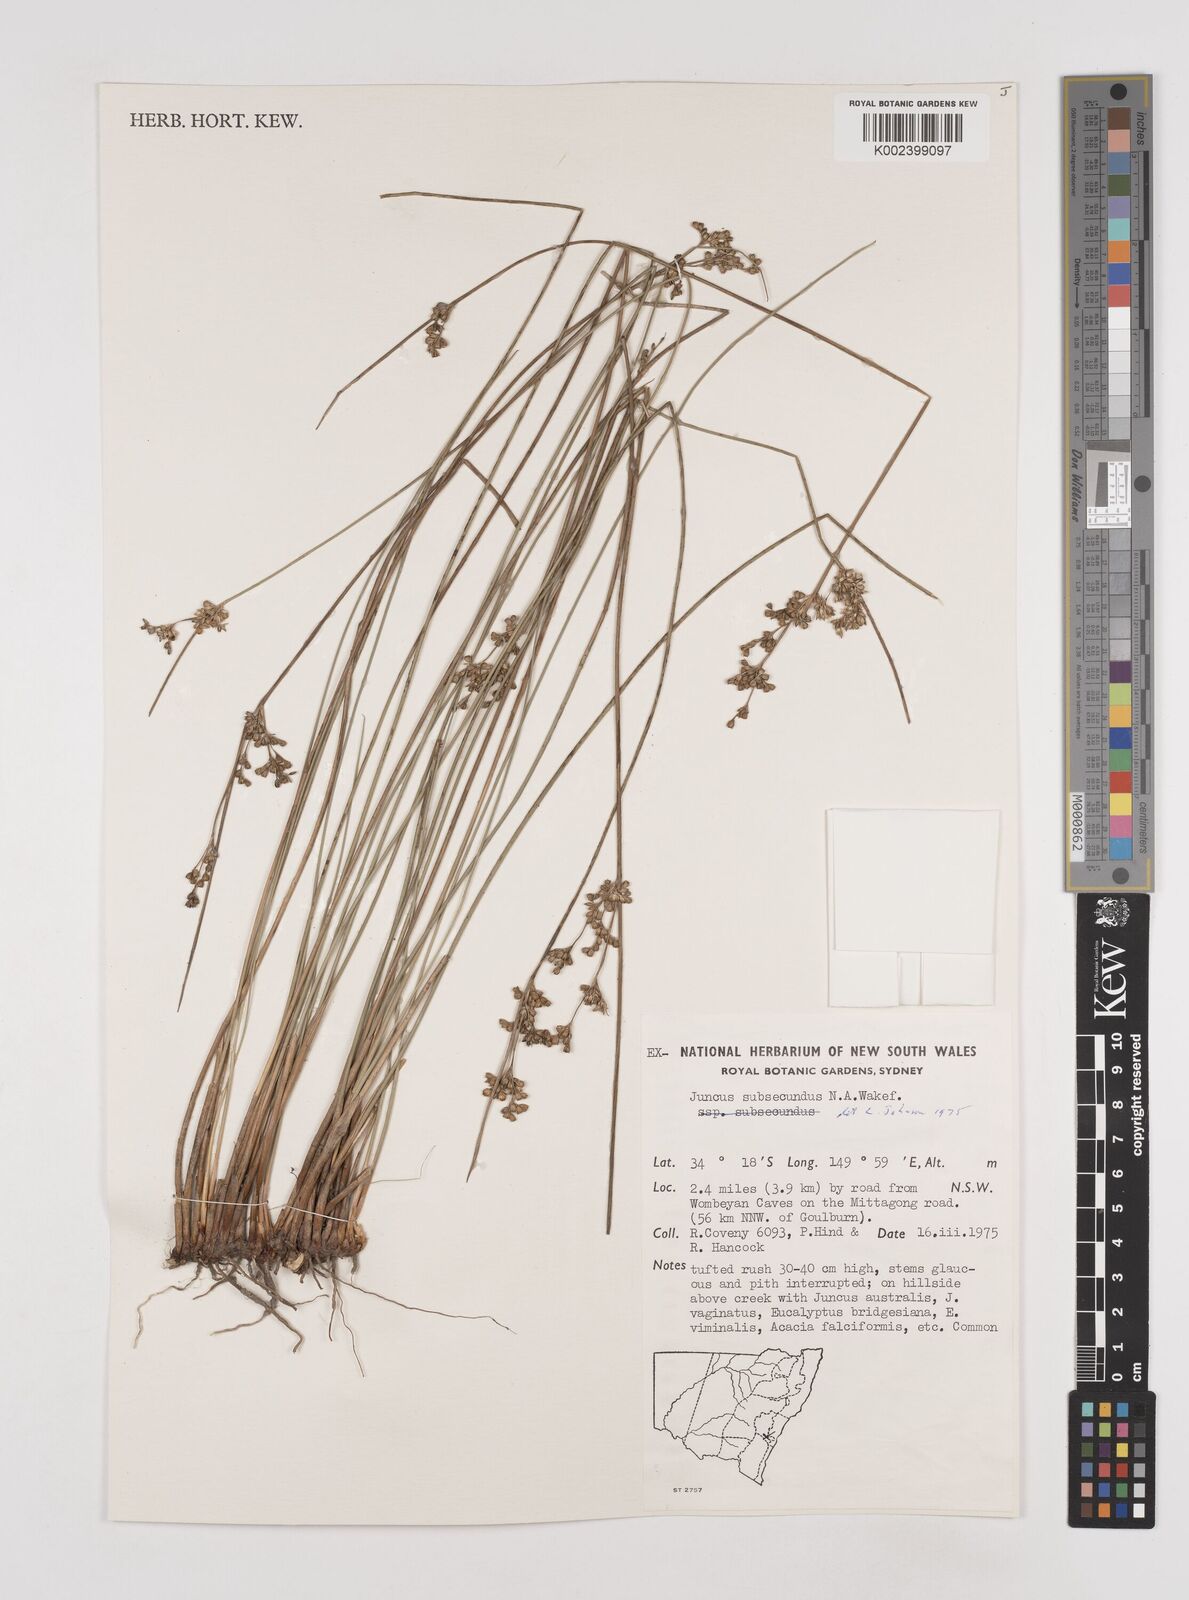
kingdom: Plantae
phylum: Tracheophyta
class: Liliopsida
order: Poales
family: Juncaceae
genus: Juncus
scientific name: Juncus subsecundus
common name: Fingered rush
